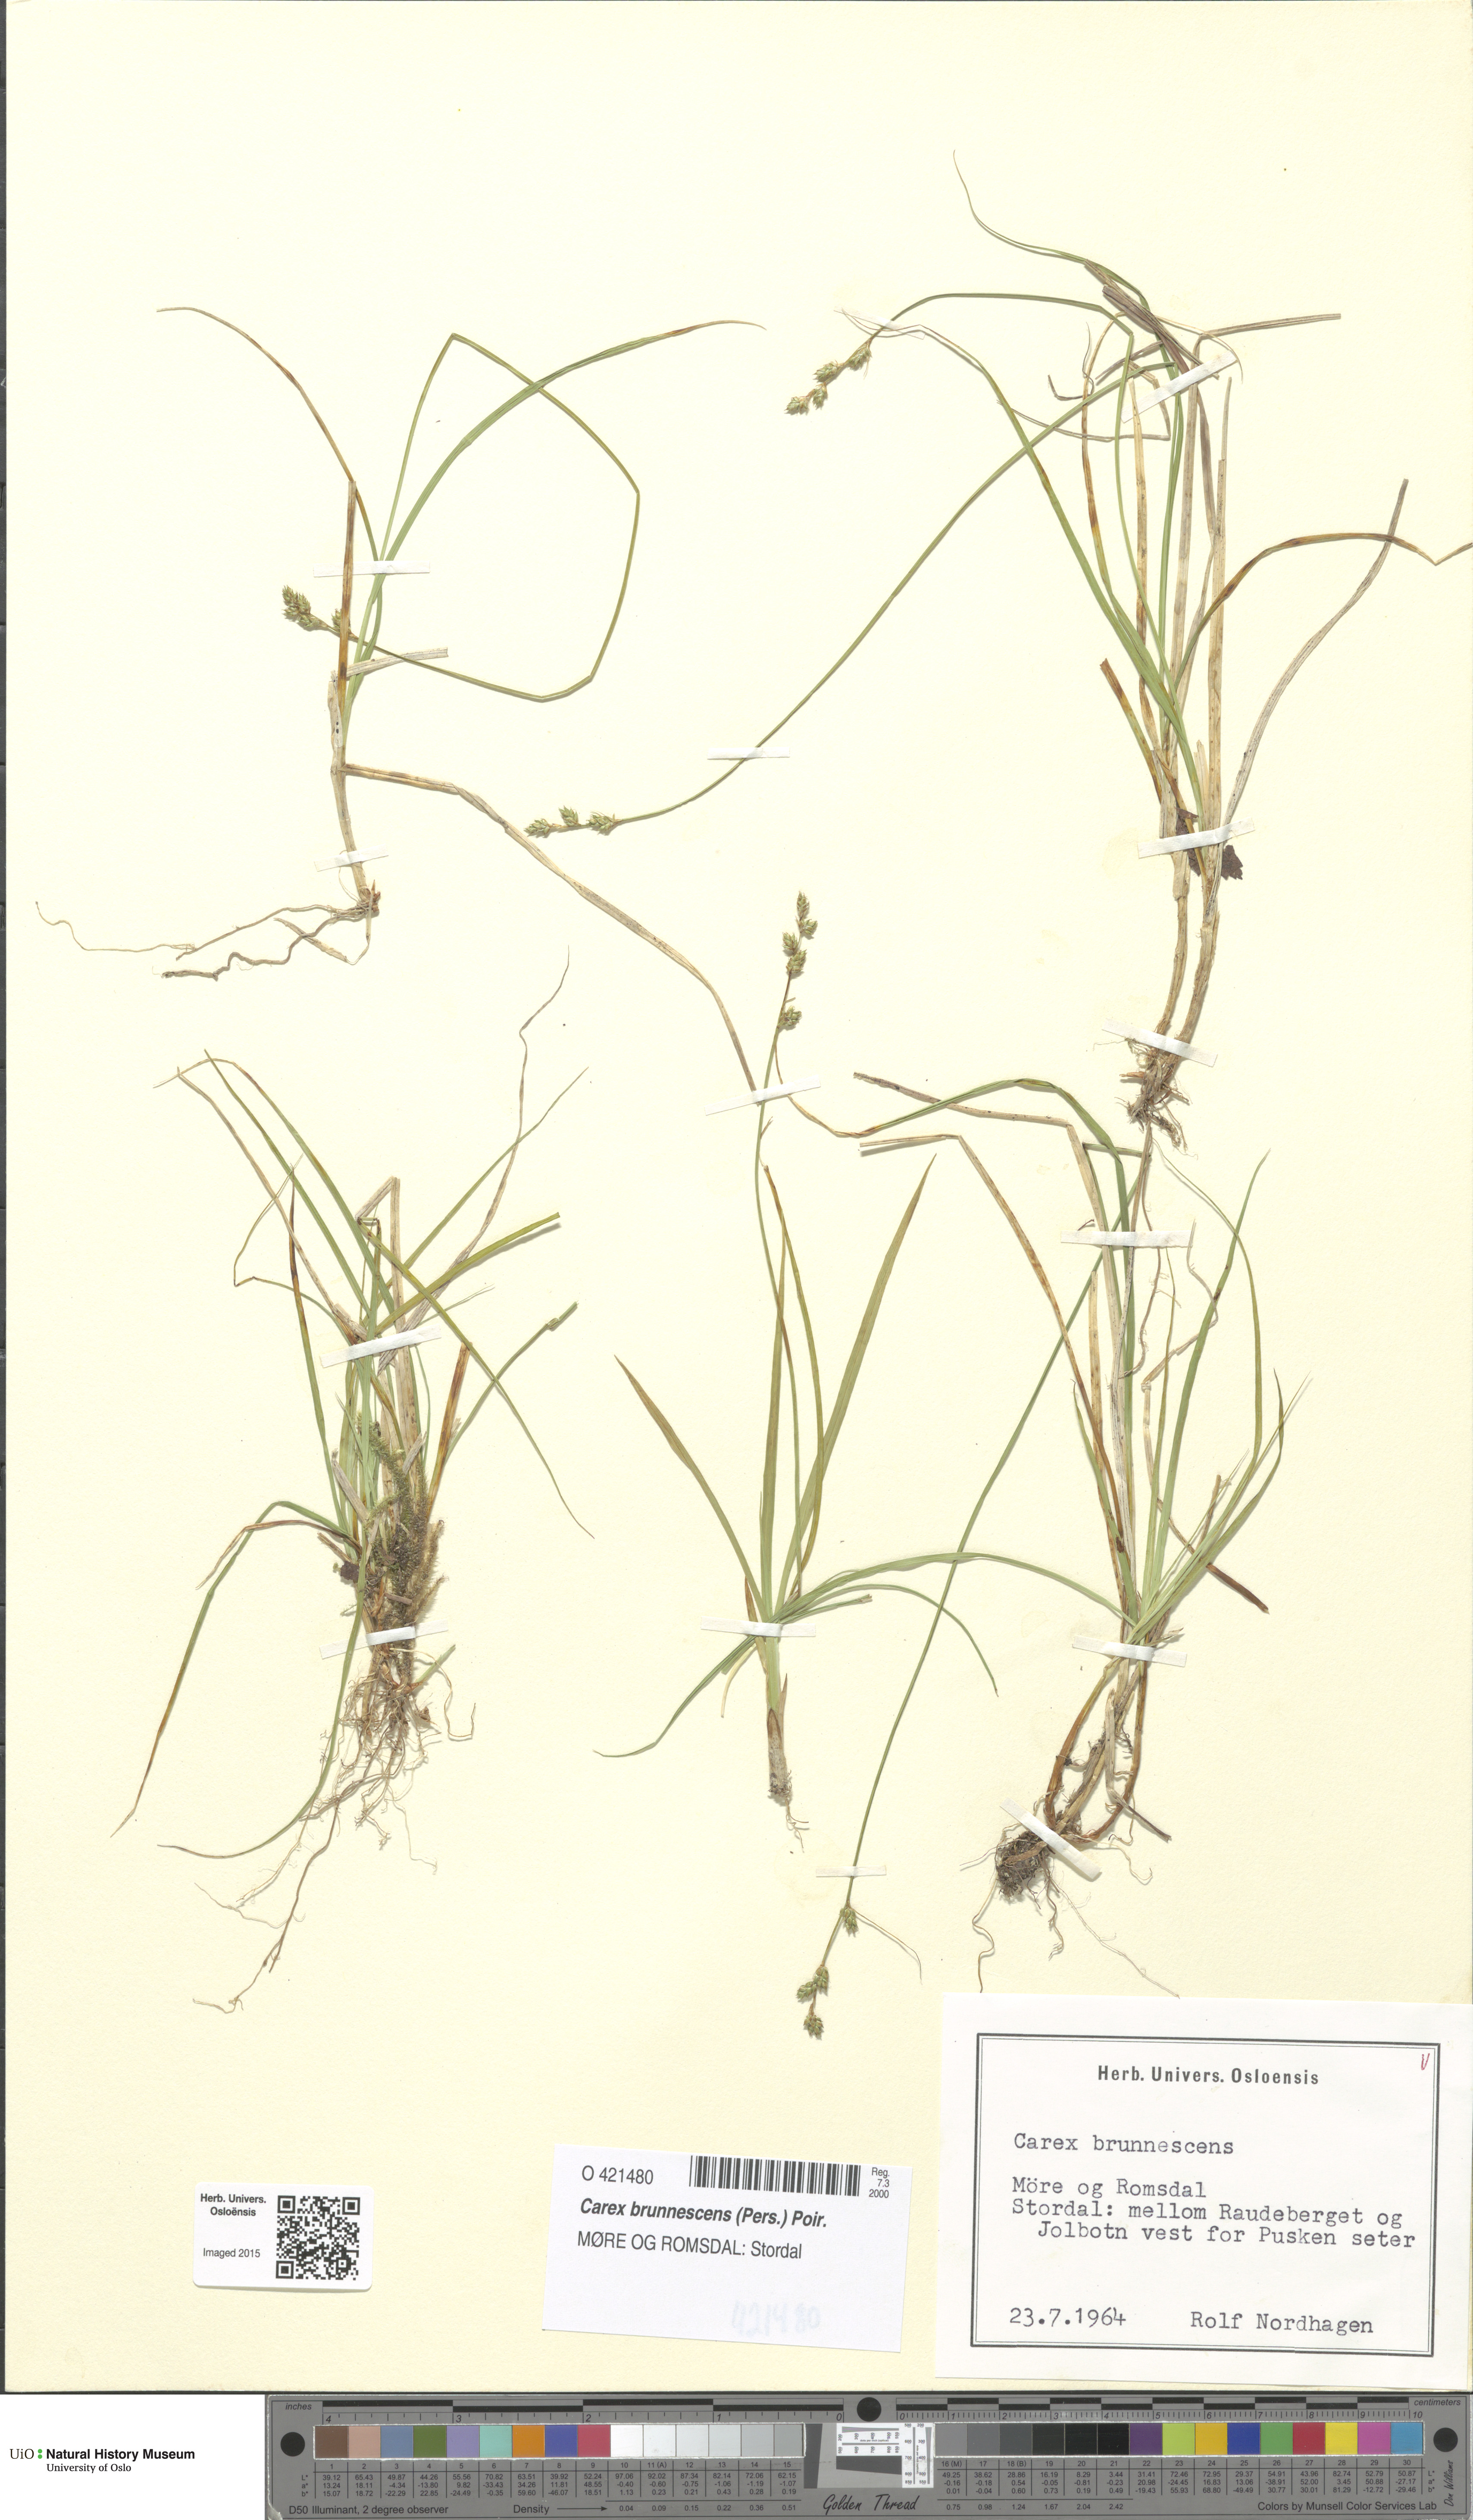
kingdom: Plantae
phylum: Tracheophyta
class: Liliopsida
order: Poales
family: Cyperaceae
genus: Carex
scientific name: Carex brunnescens
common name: Brown sedge
